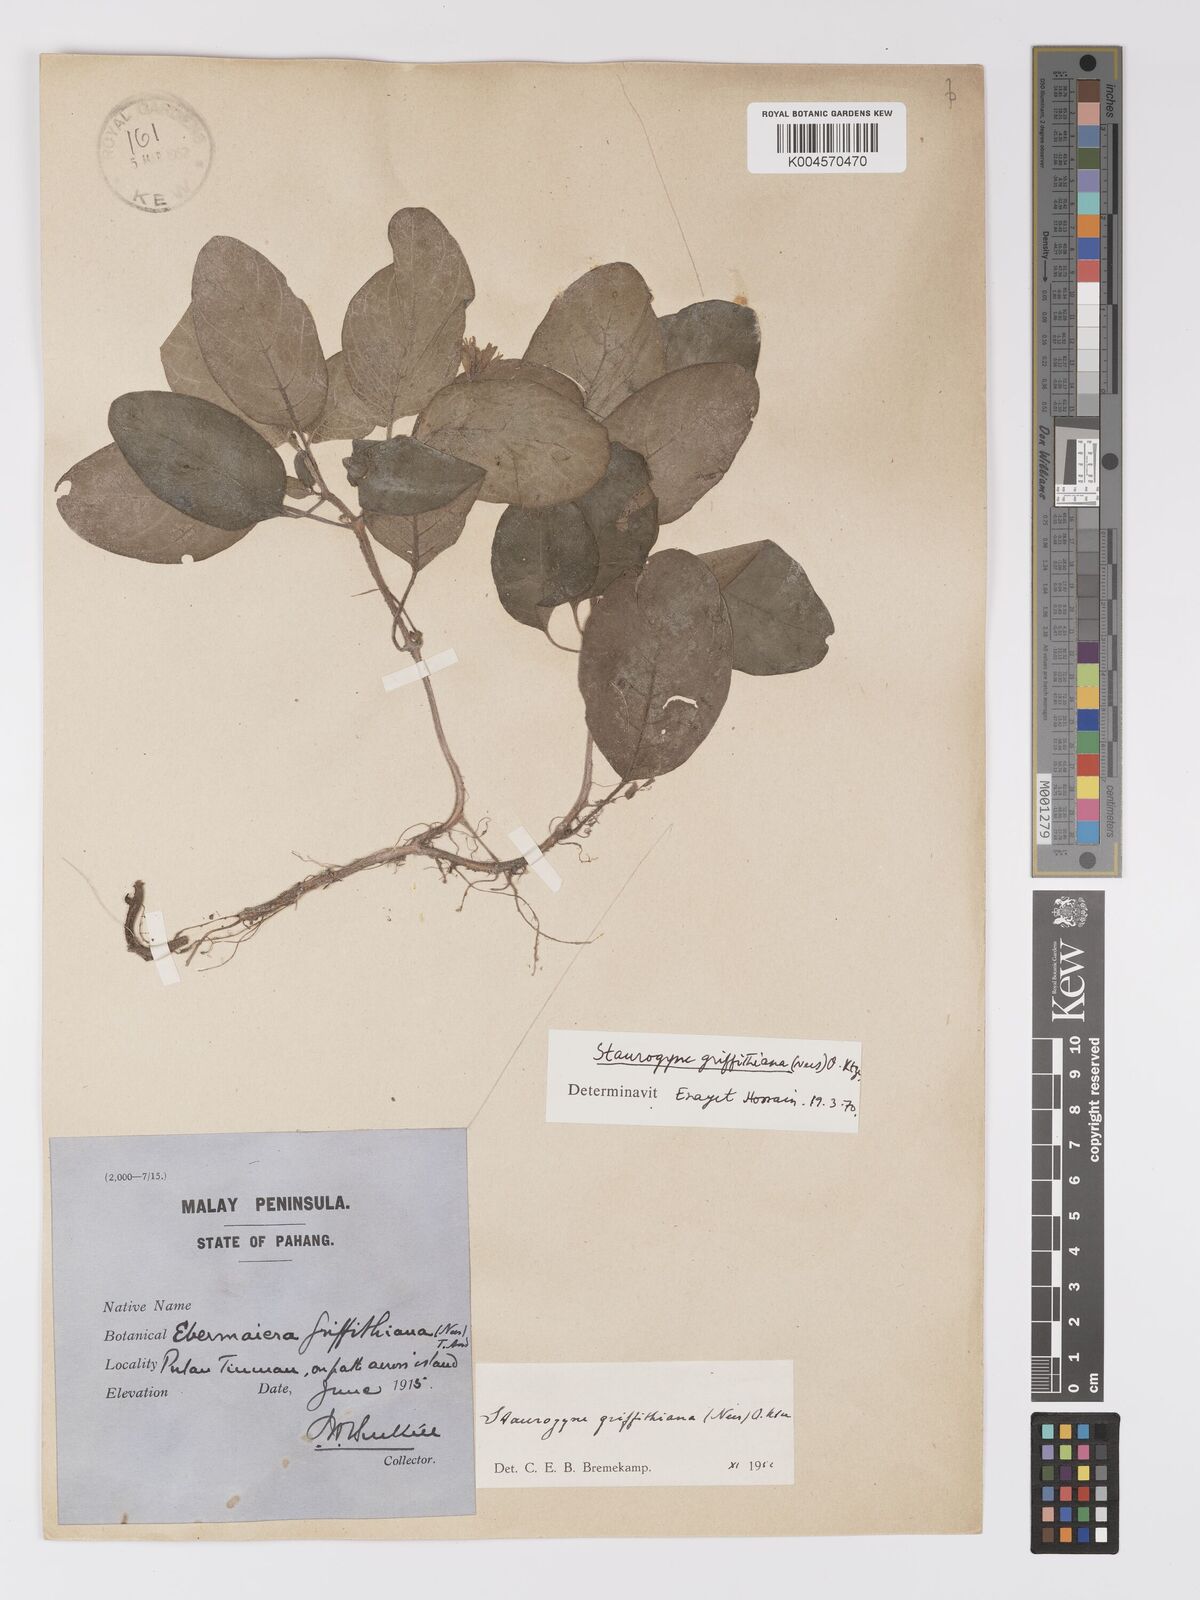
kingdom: Plantae
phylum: Tracheophyta
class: Magnoliopsida
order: Lamiales
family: Acanthaceae
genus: Staurogyne
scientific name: Staurogyne griffithiana
